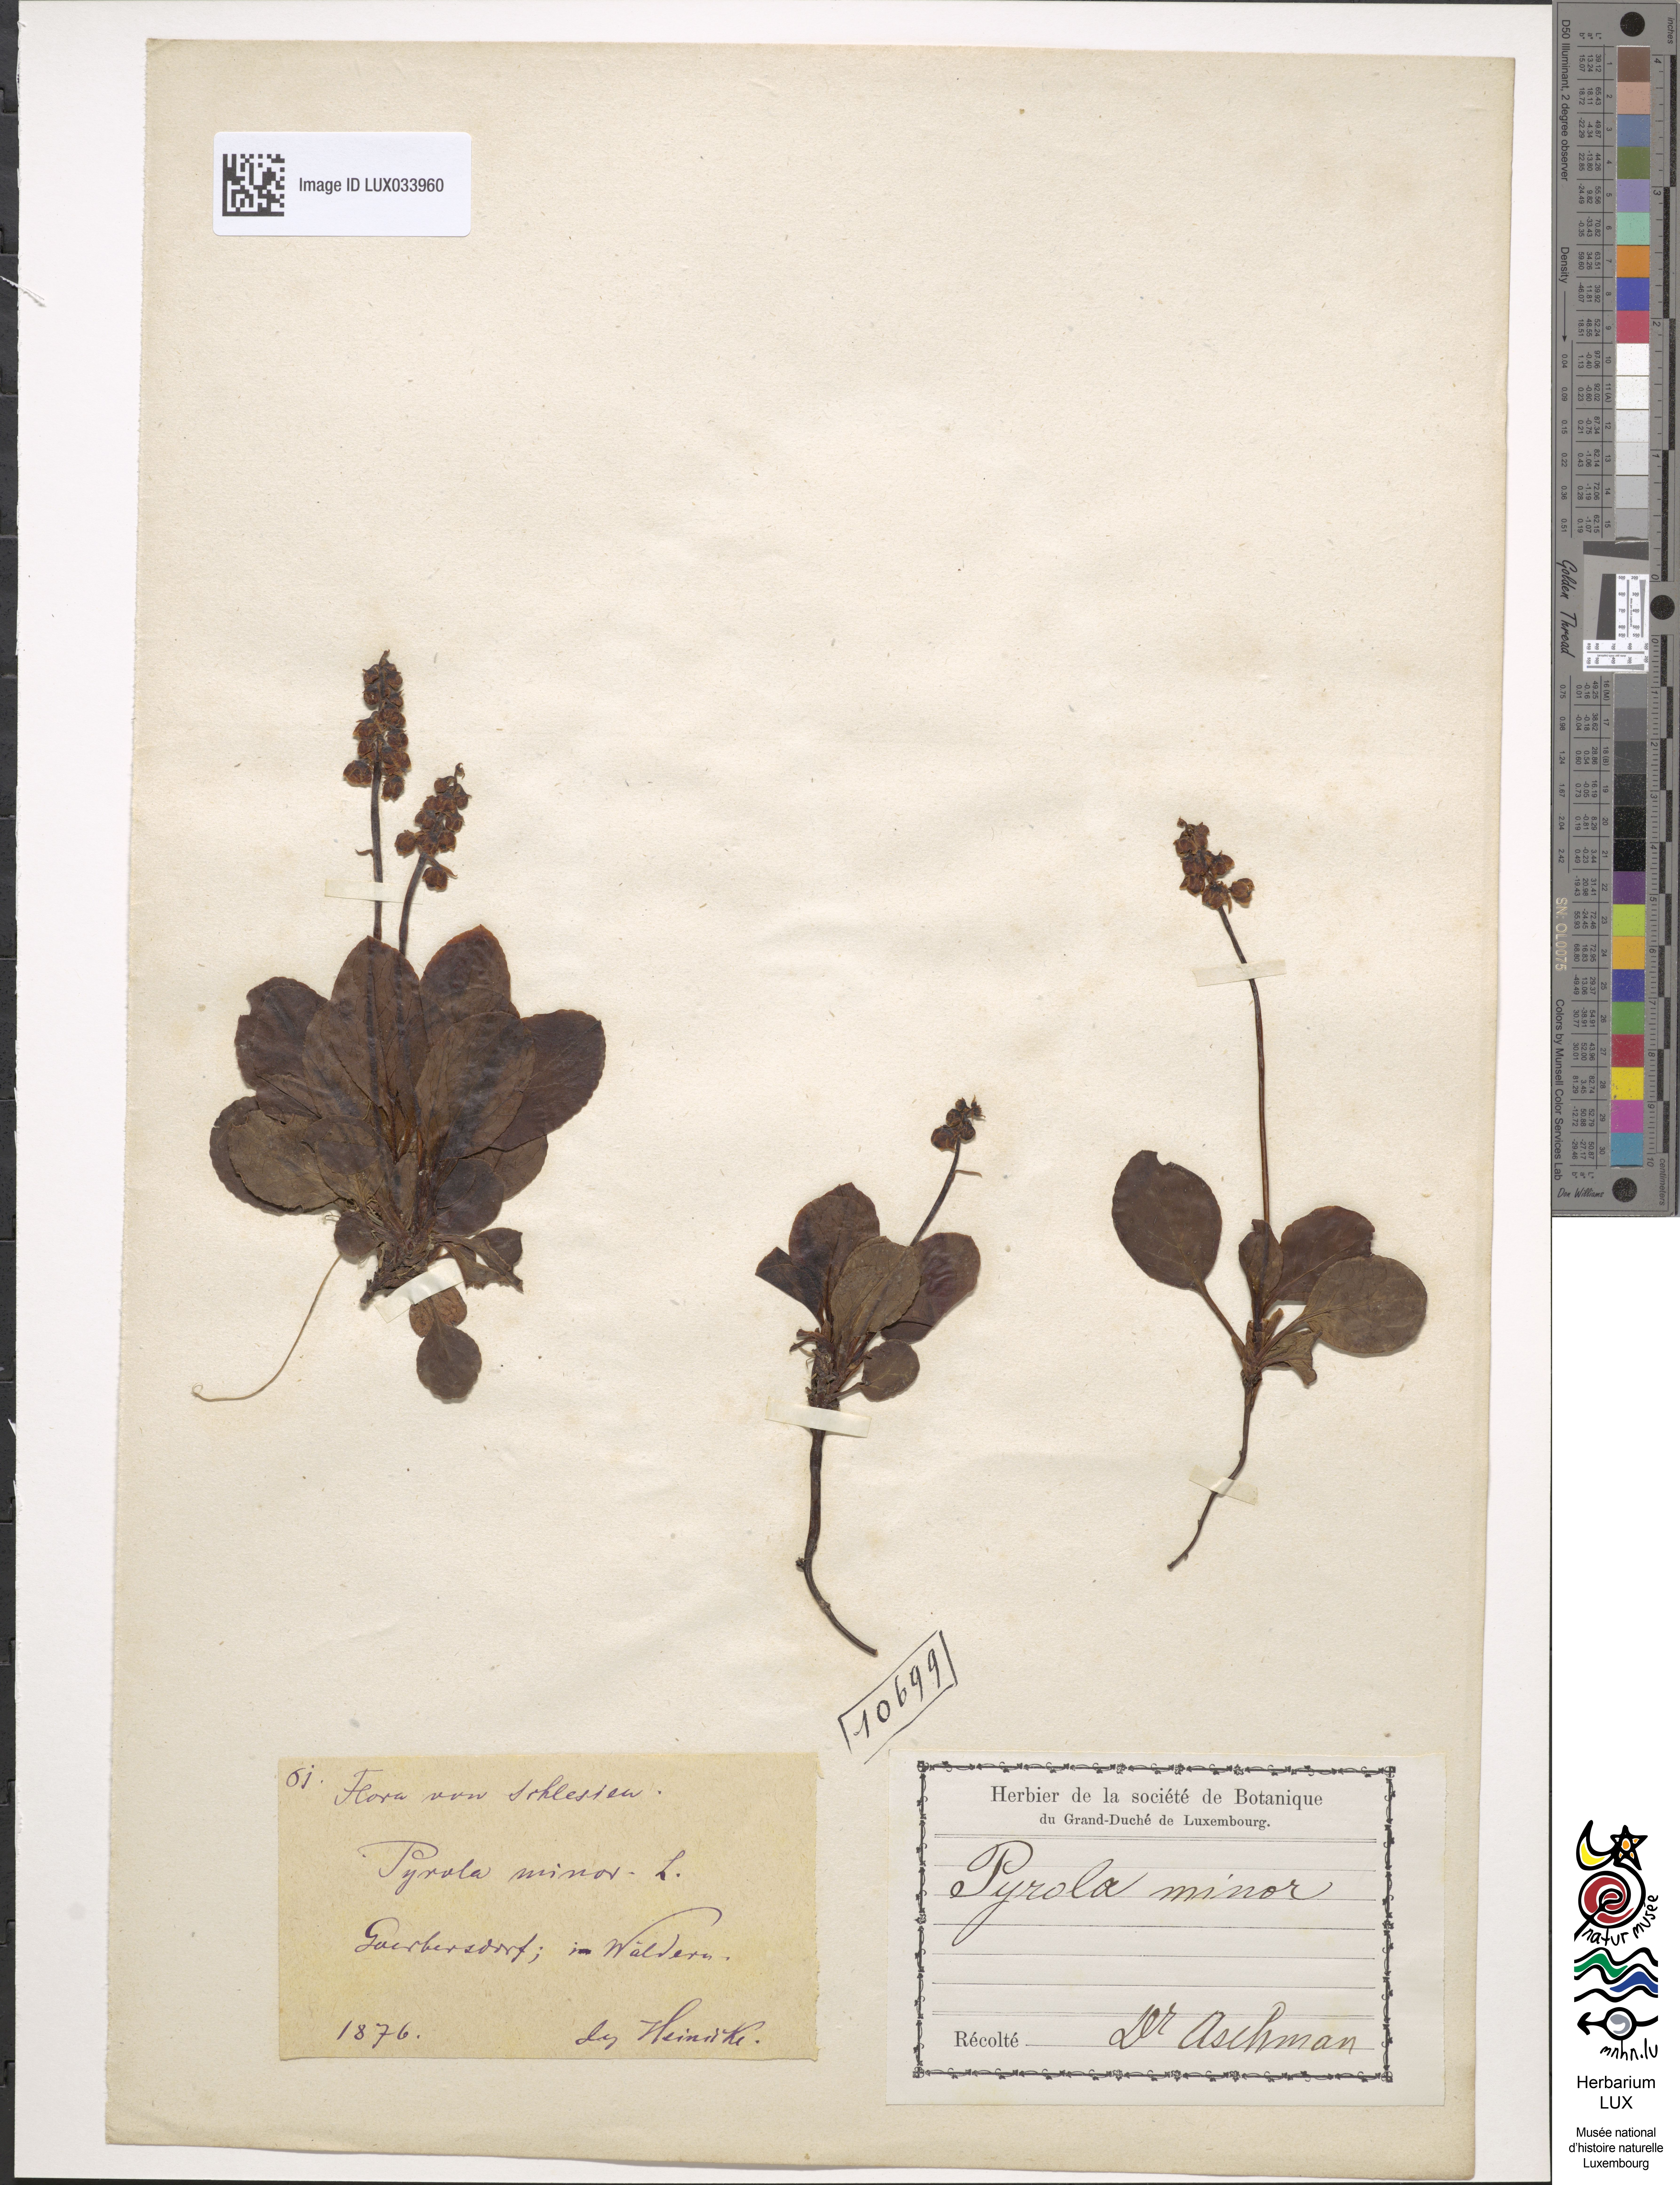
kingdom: Plantae
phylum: Tracheophyta
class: Magnoliopsida
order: Ericales
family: Ericaceae
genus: Pyrola
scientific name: Pyrola minor
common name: Common wintergreen
